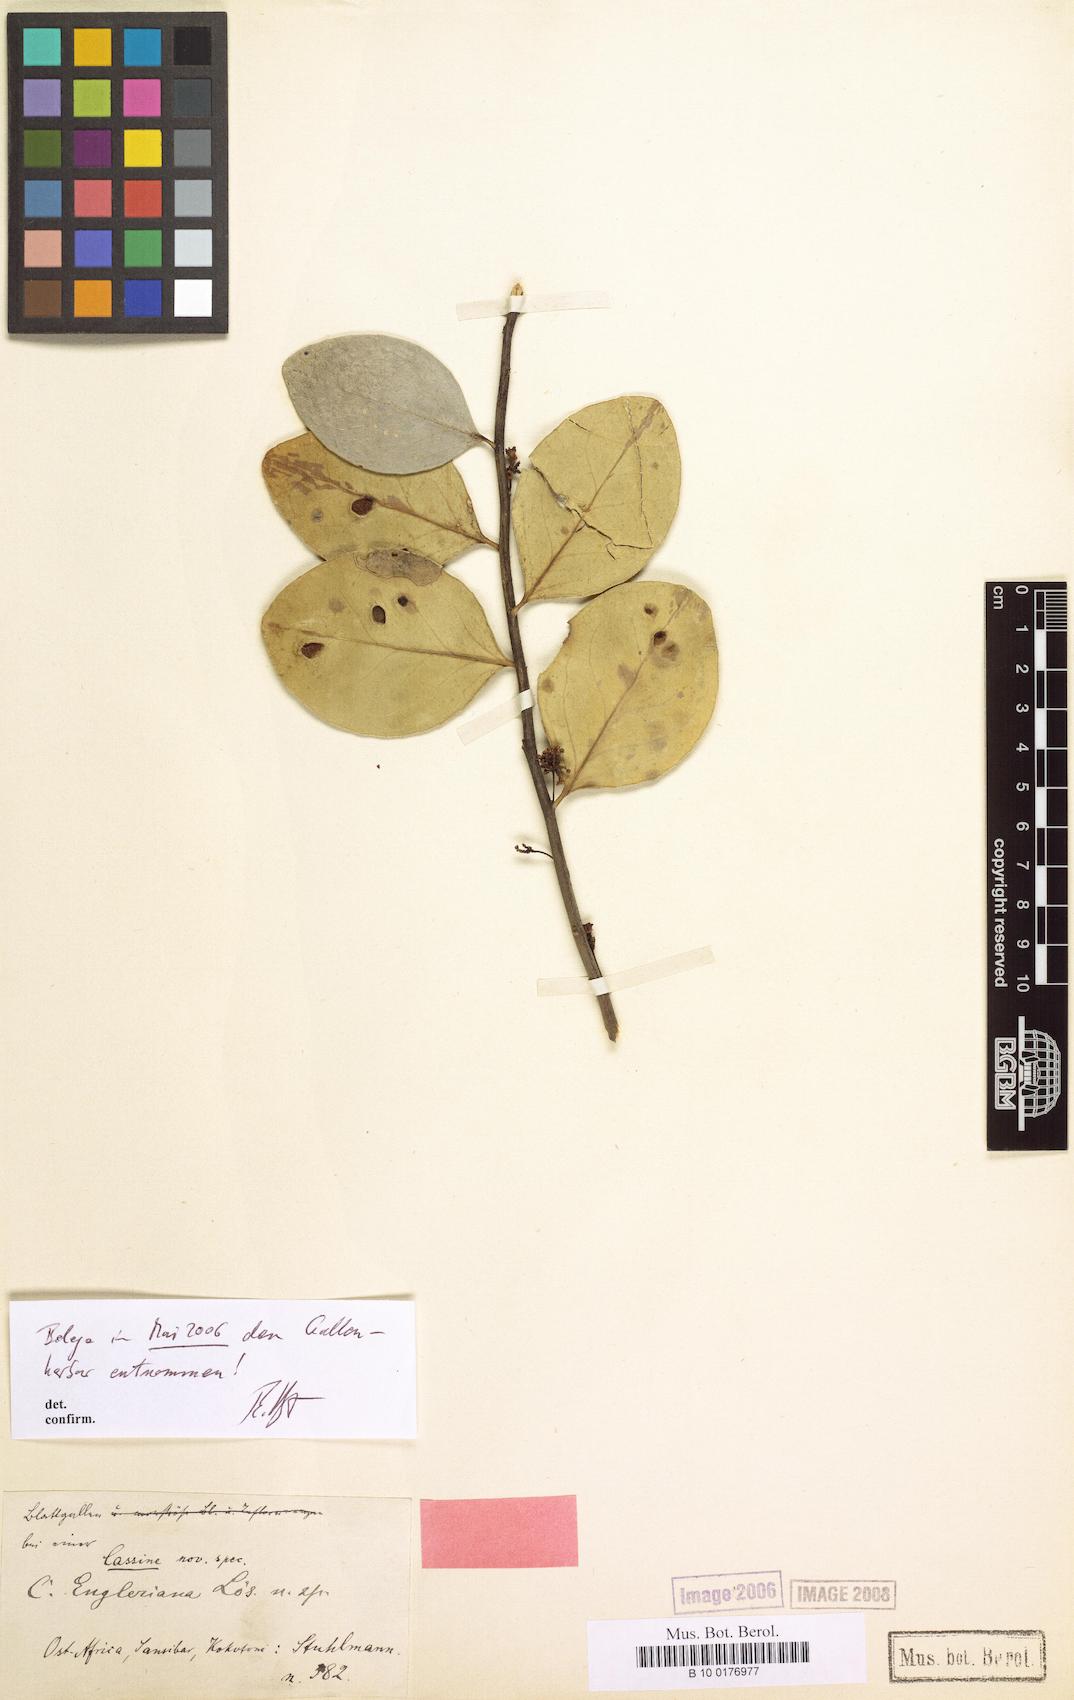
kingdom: Plantae
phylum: Tracheophyta
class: Magnoliopsida
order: Celastrales
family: Celastraceae
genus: Mystroxylon
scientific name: Mystroxylon aethiopicum
